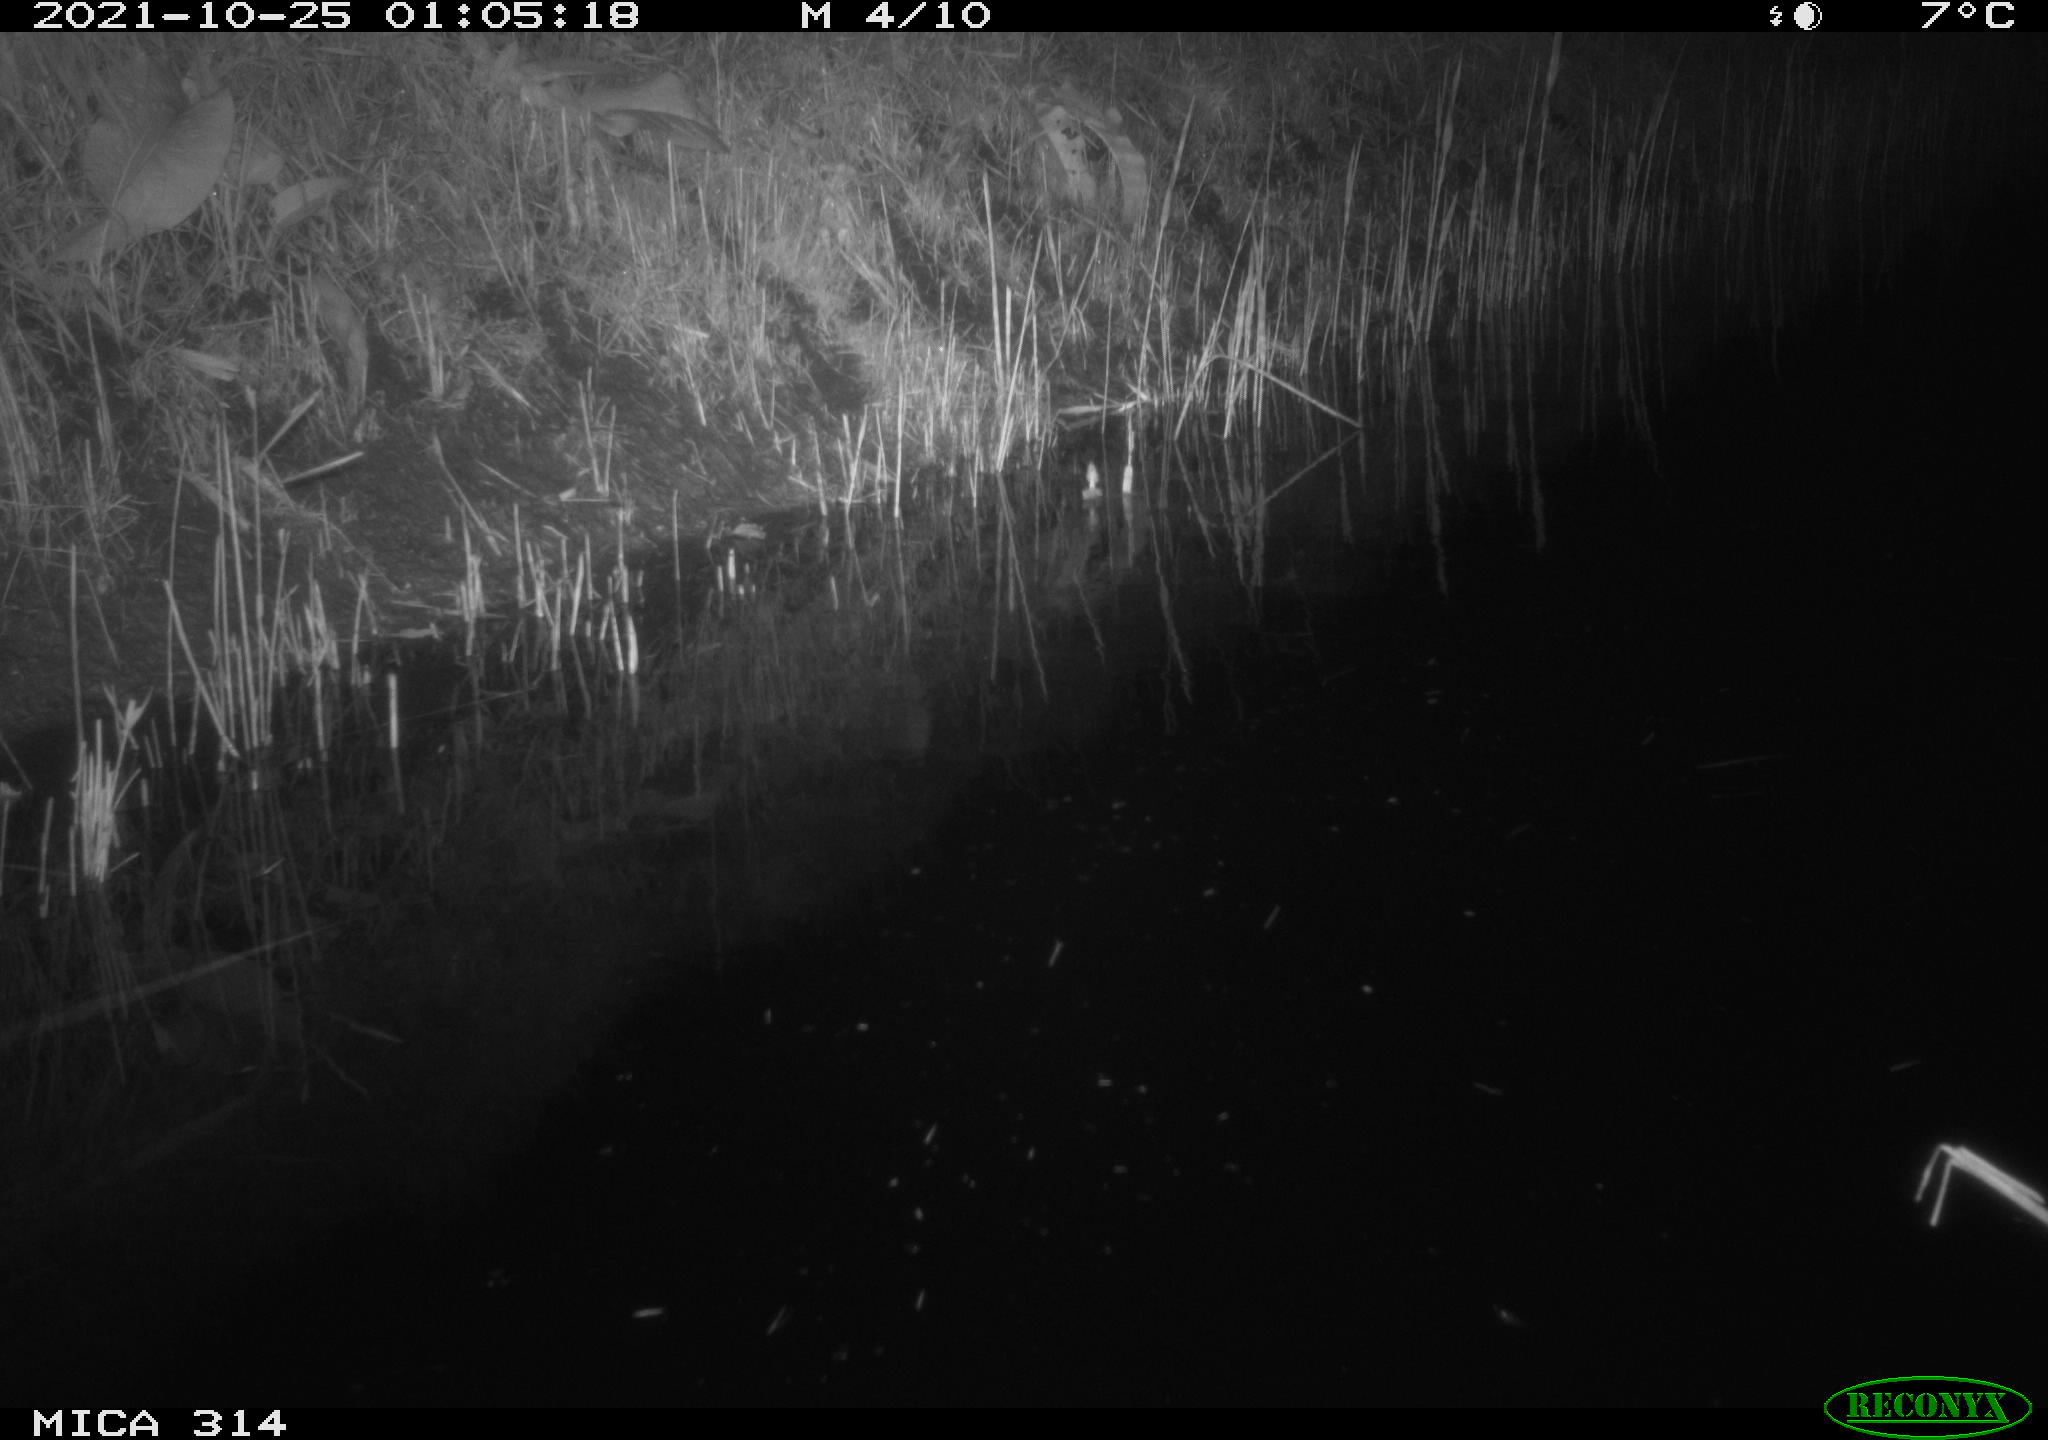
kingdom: Animalia
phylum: Chordata
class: Mammalia
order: Rodentia
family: Muridae
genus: Rattus
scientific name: Rattus norvegicus
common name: Brown rat
